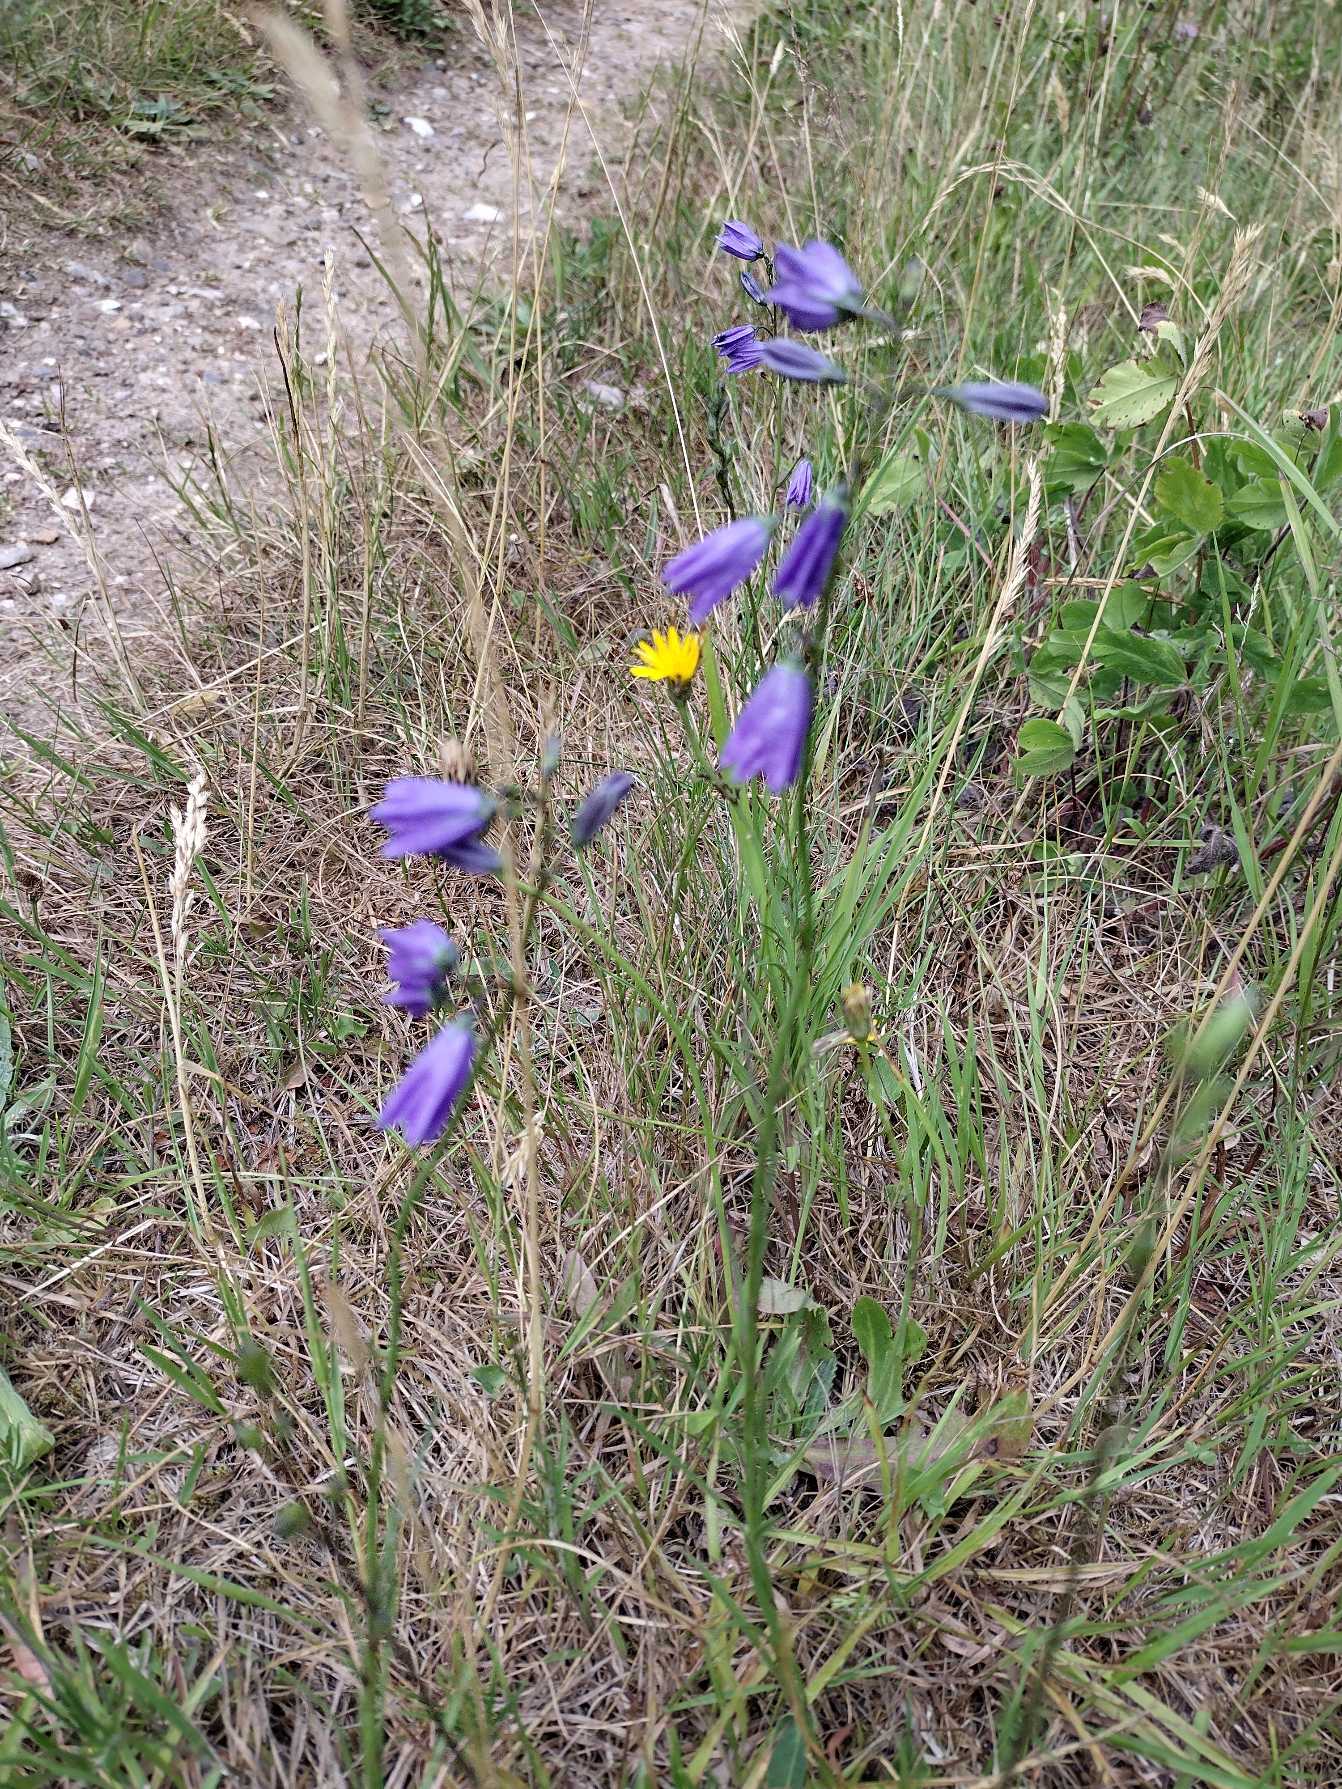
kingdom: Plantae
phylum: Tracheophyta
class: Magnoliopsida
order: Asterales
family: Campanulaceae
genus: Campanula
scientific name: Campanula rotundifolia
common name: Liden klokke
